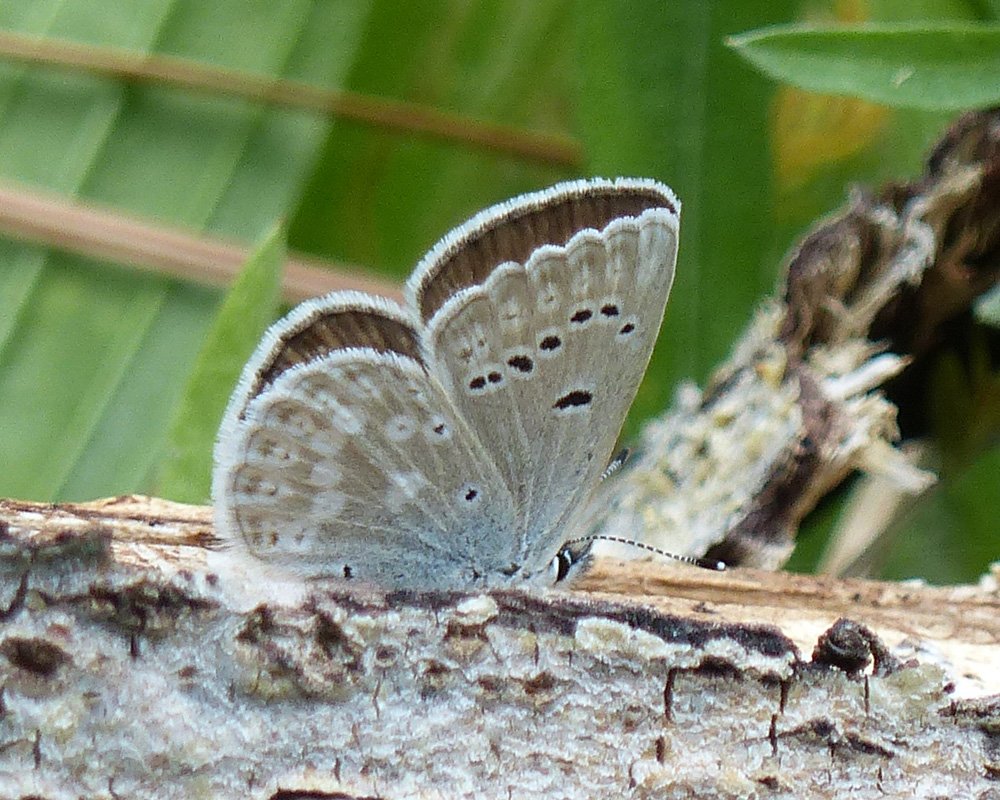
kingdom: Animalia
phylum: Arthropoda
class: Insecta
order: Lepidoptera
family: Lycaenidae
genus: Icaricia
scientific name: Icaricia icarioides
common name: Boisduval's Blue
